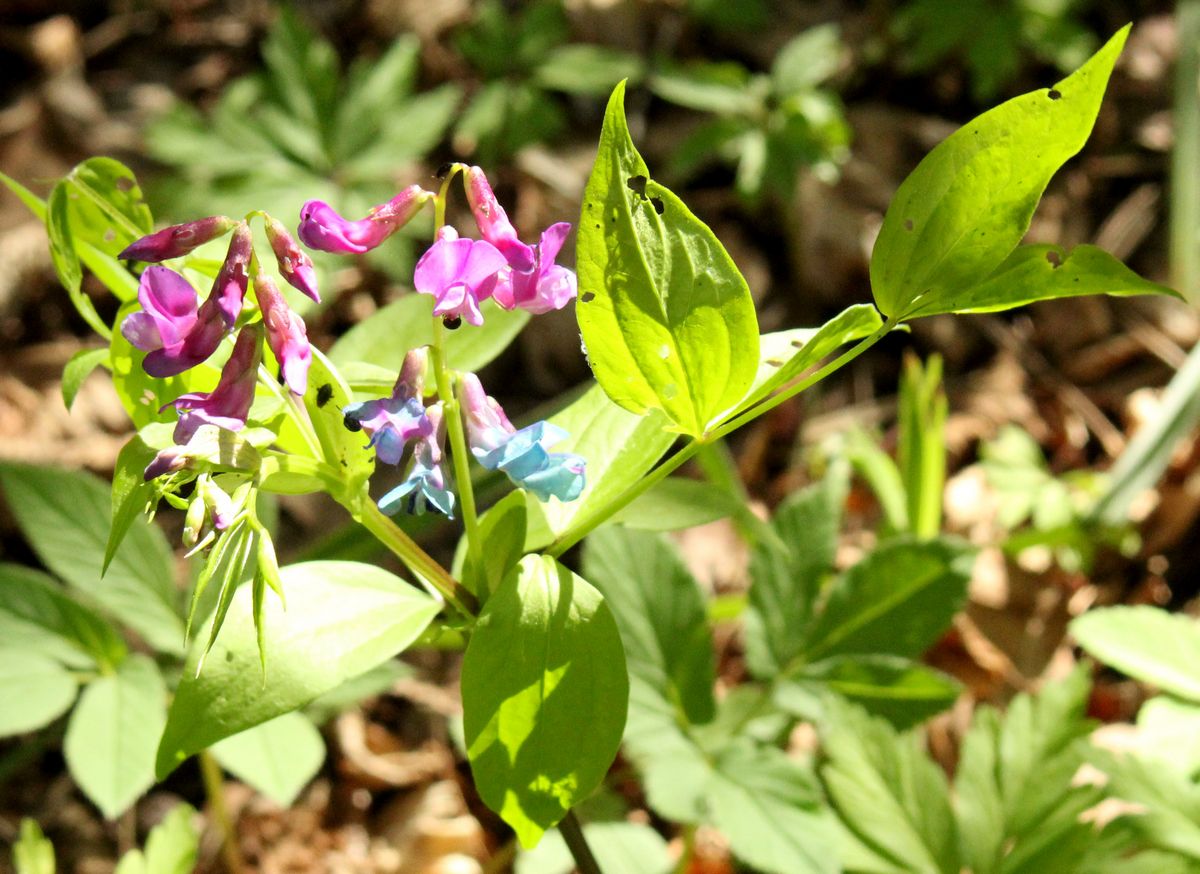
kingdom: Plantae
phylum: Tracheophyta
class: Magnoliopsida
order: Fabales
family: Fabaceae
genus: Lathyrus
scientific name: Lathyrus vernus
